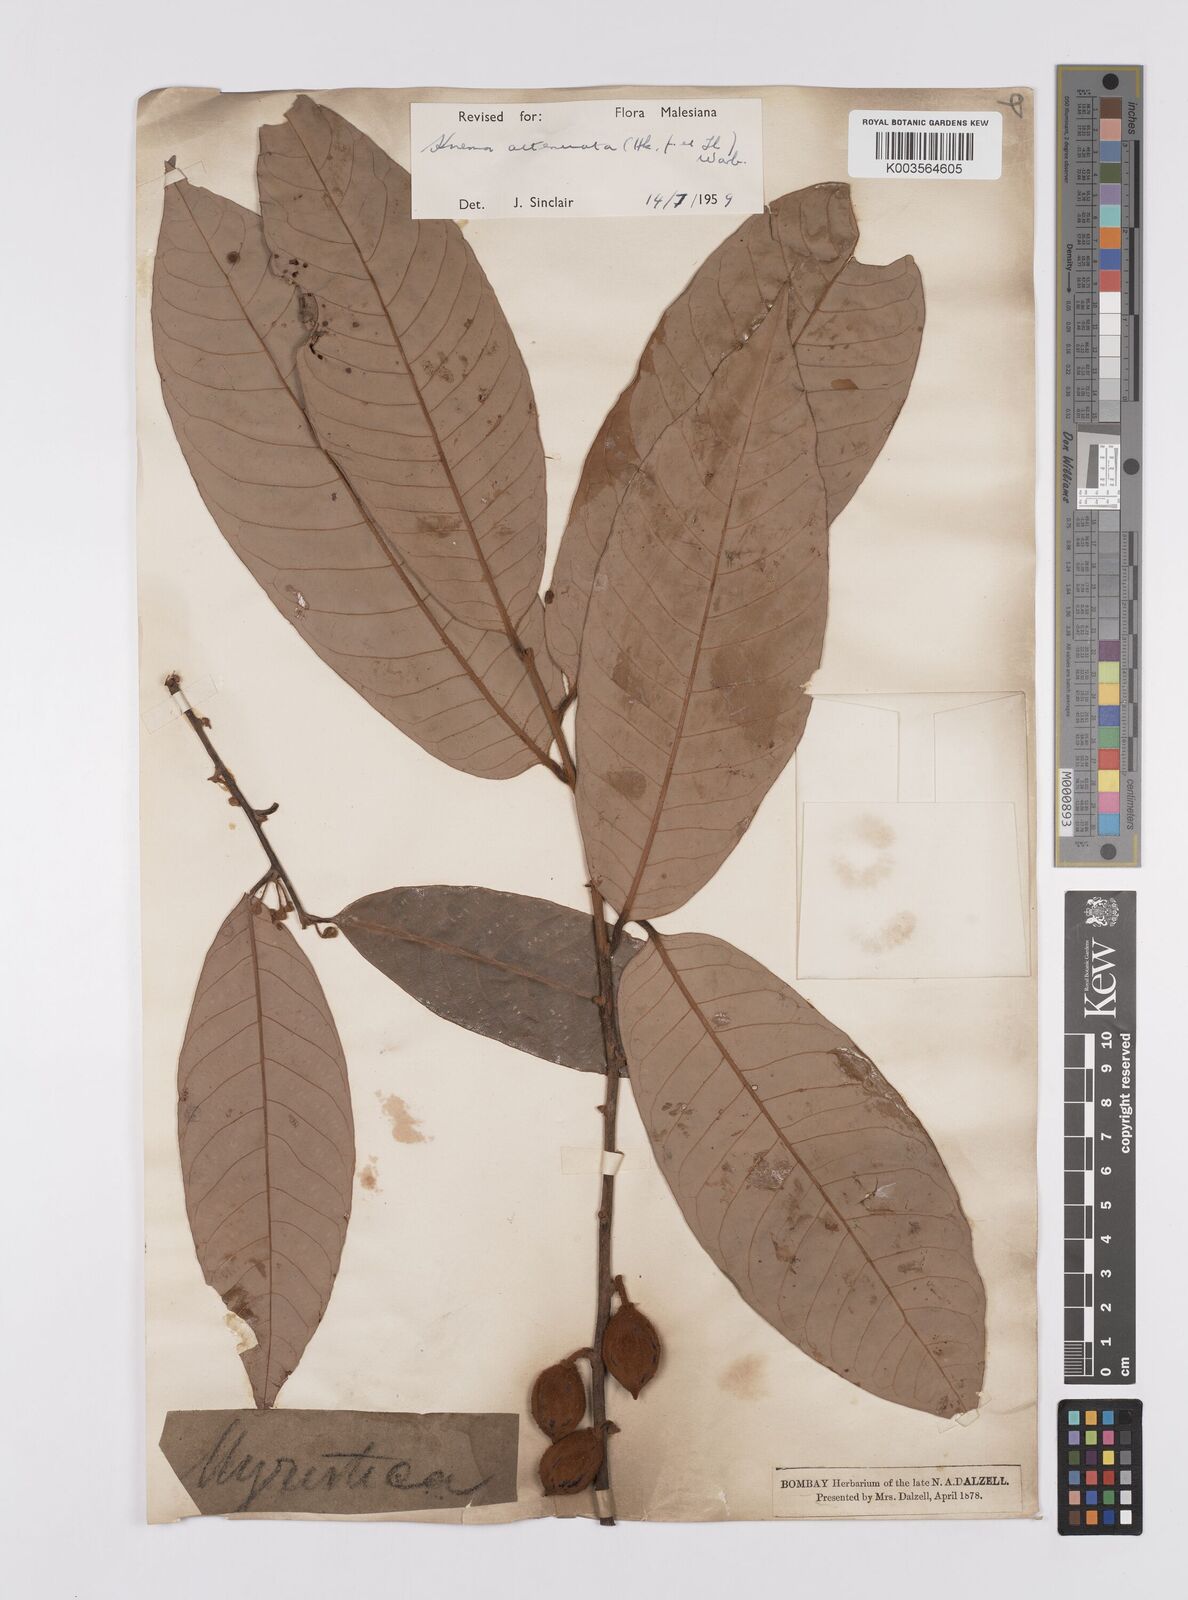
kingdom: Plantae
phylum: Tracheophyta
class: Magnoliopsida
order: Magnoliales
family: Myristicaceae
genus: Knema
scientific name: Knema attenuata
